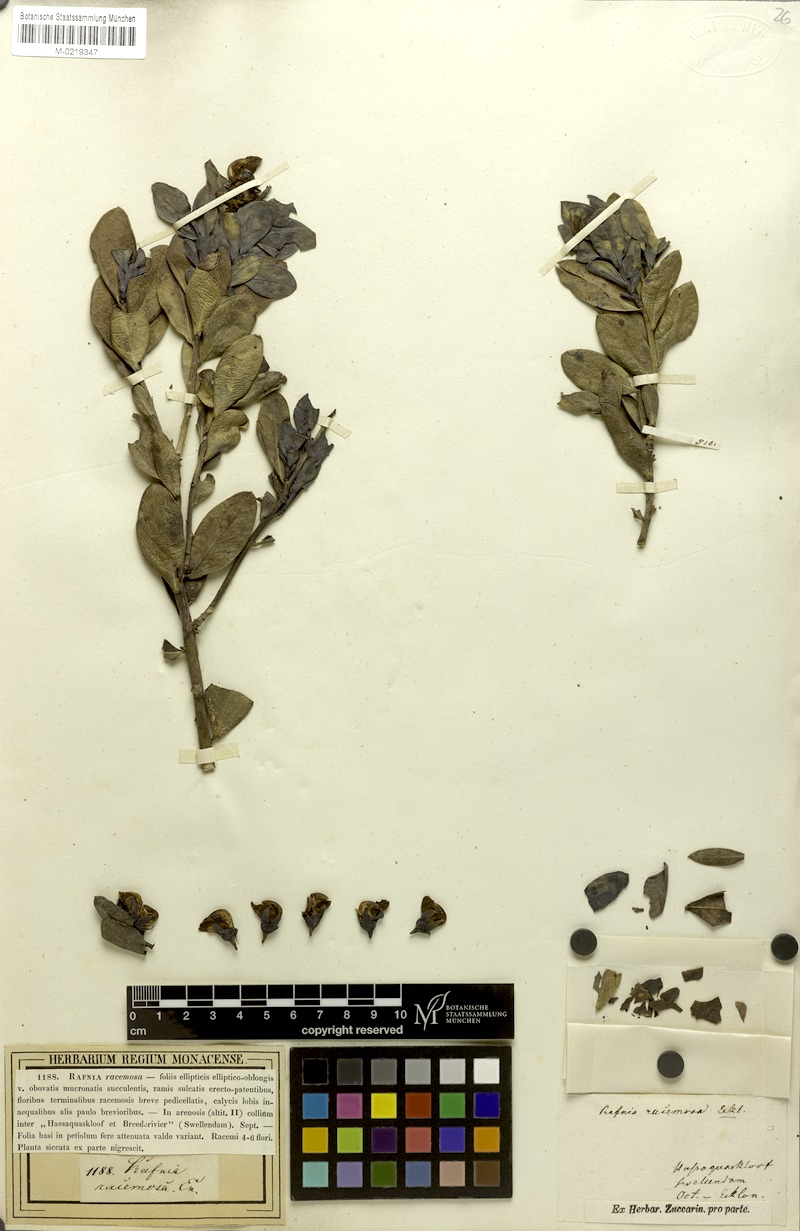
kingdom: Plantae
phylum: Tracheophyta
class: Magnoliopsida
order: Fabales
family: Fabaceae
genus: Rafnia
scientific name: Rafnia racemosa
